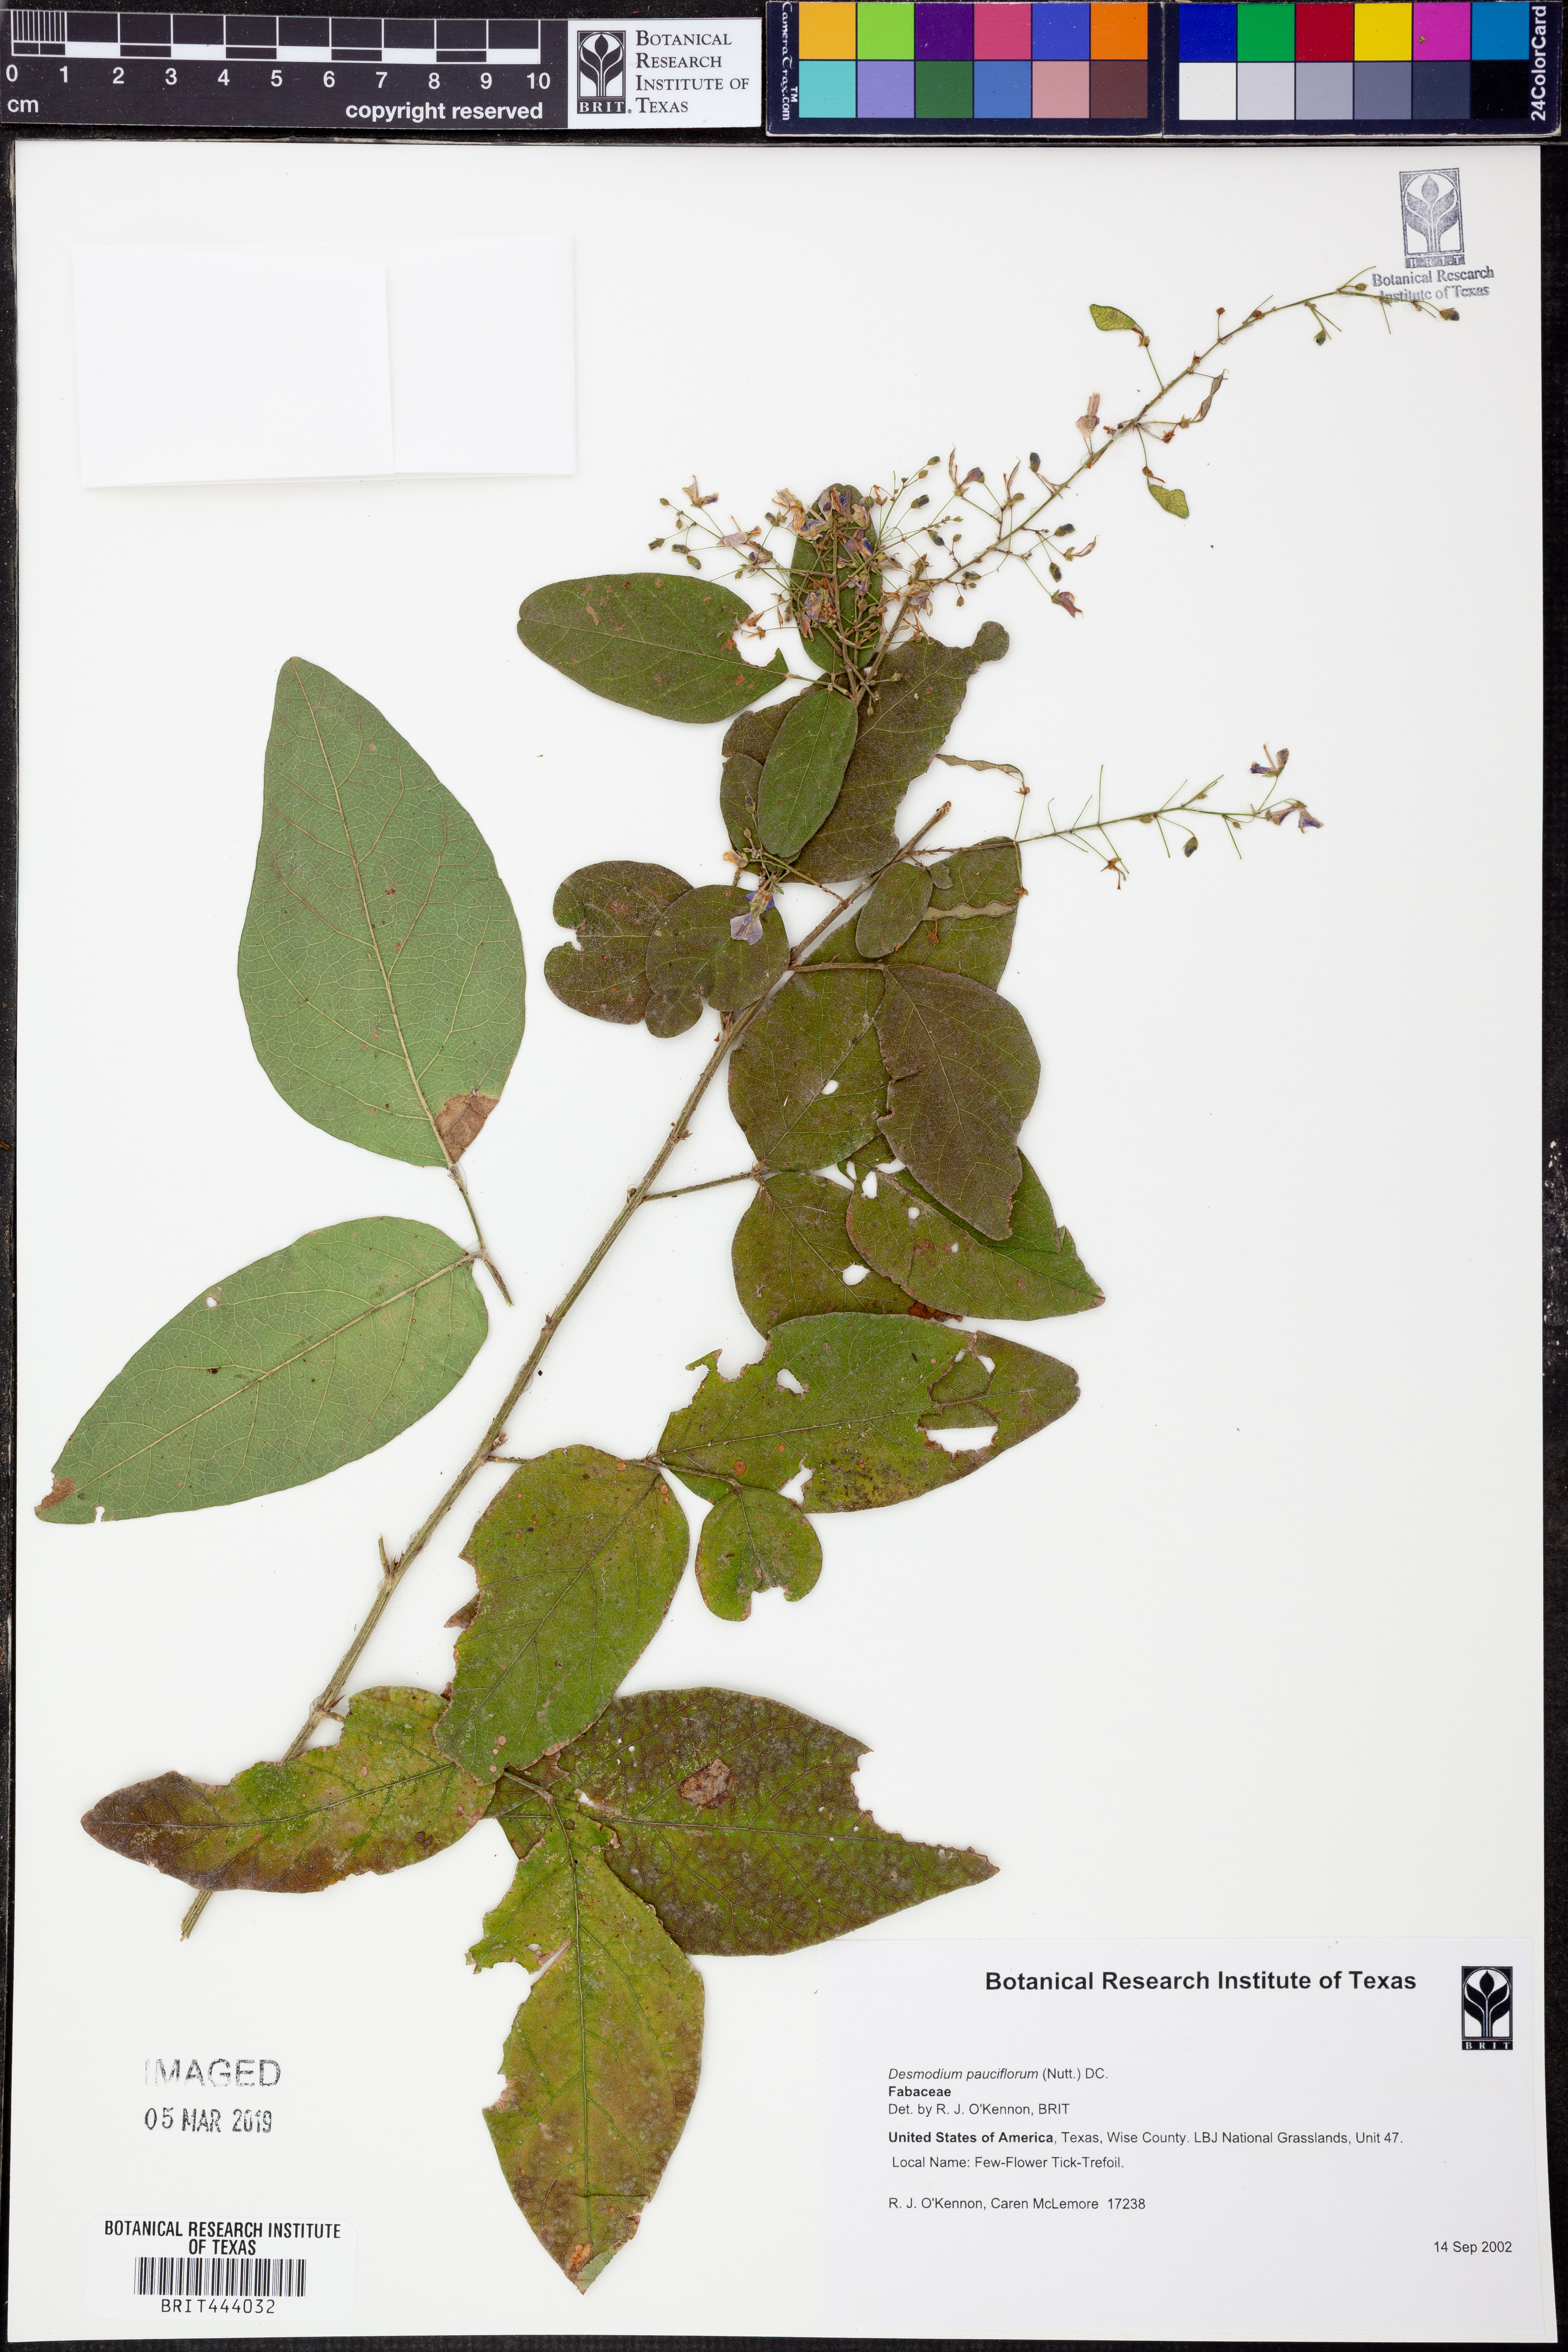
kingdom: Plantae
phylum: Tracheophyta
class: Magnoliopsida
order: Fabales
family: Fabaceae
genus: Hylodesmum
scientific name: Hylodesmum pauciflorum
